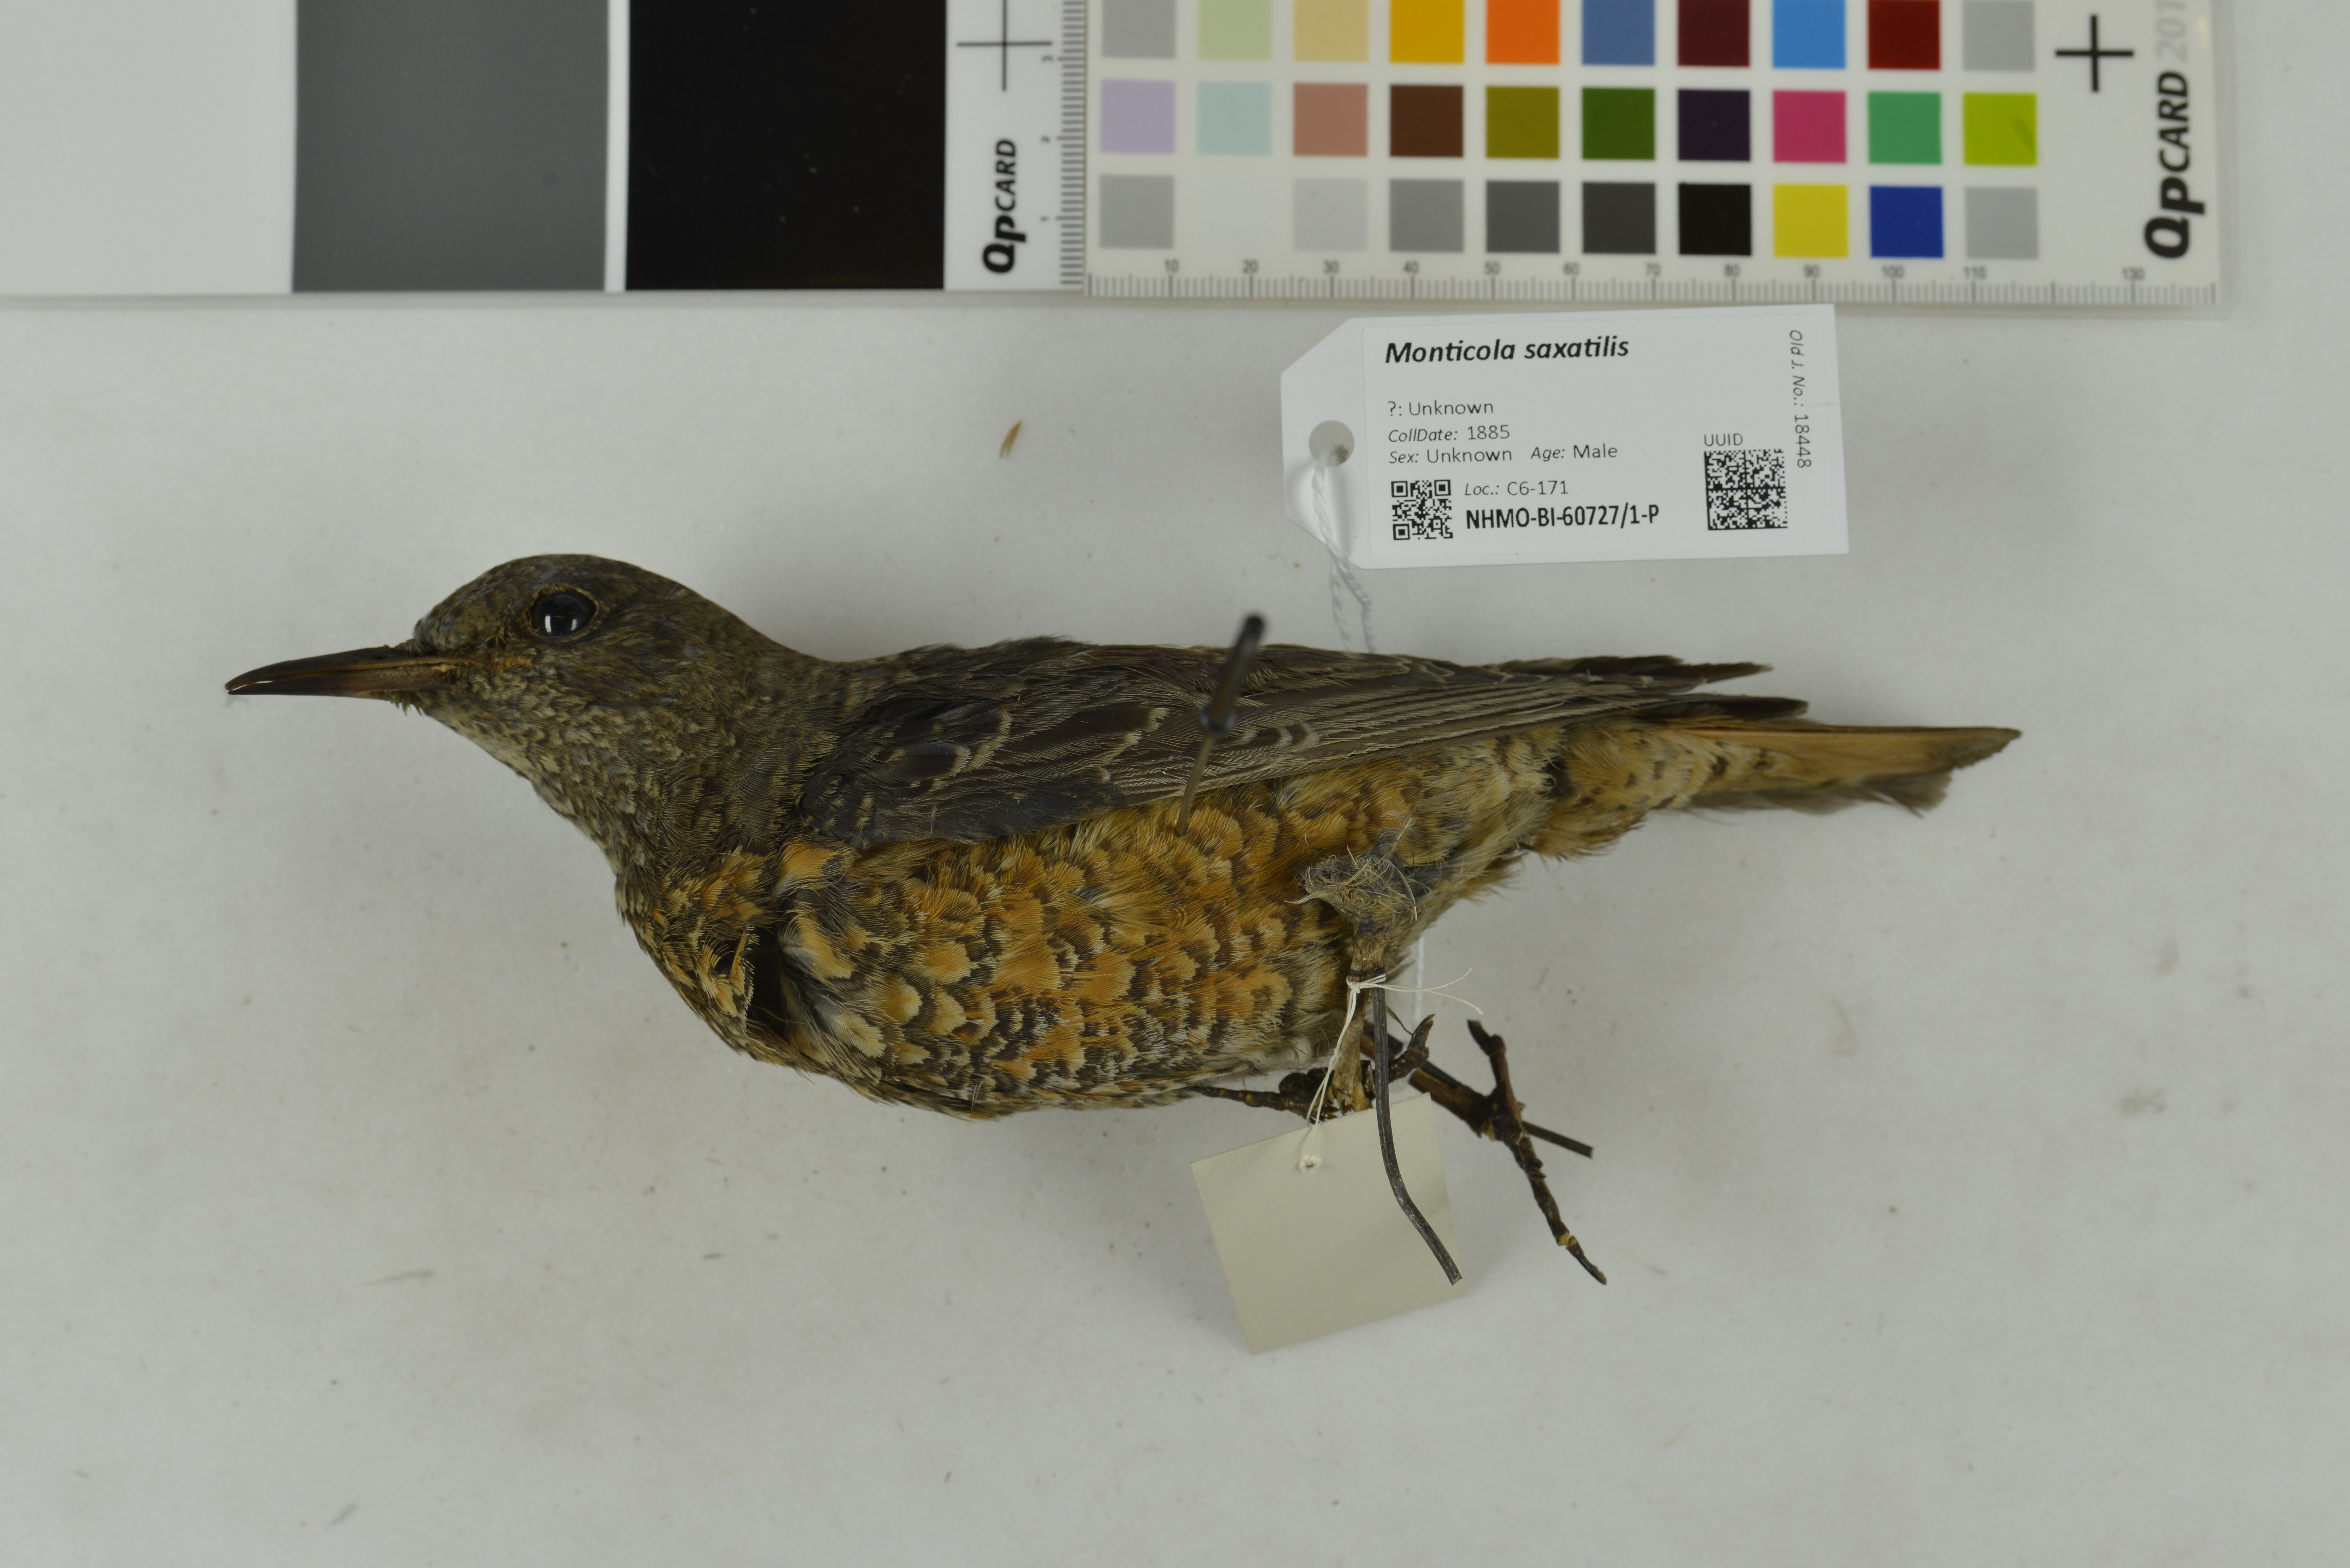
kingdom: Animalia
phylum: Chordata
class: Aves
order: Passeriformes
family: Muscicapidae
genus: Monticola
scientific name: Monticola saxatilis
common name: Rufous-tailed rock thrush
